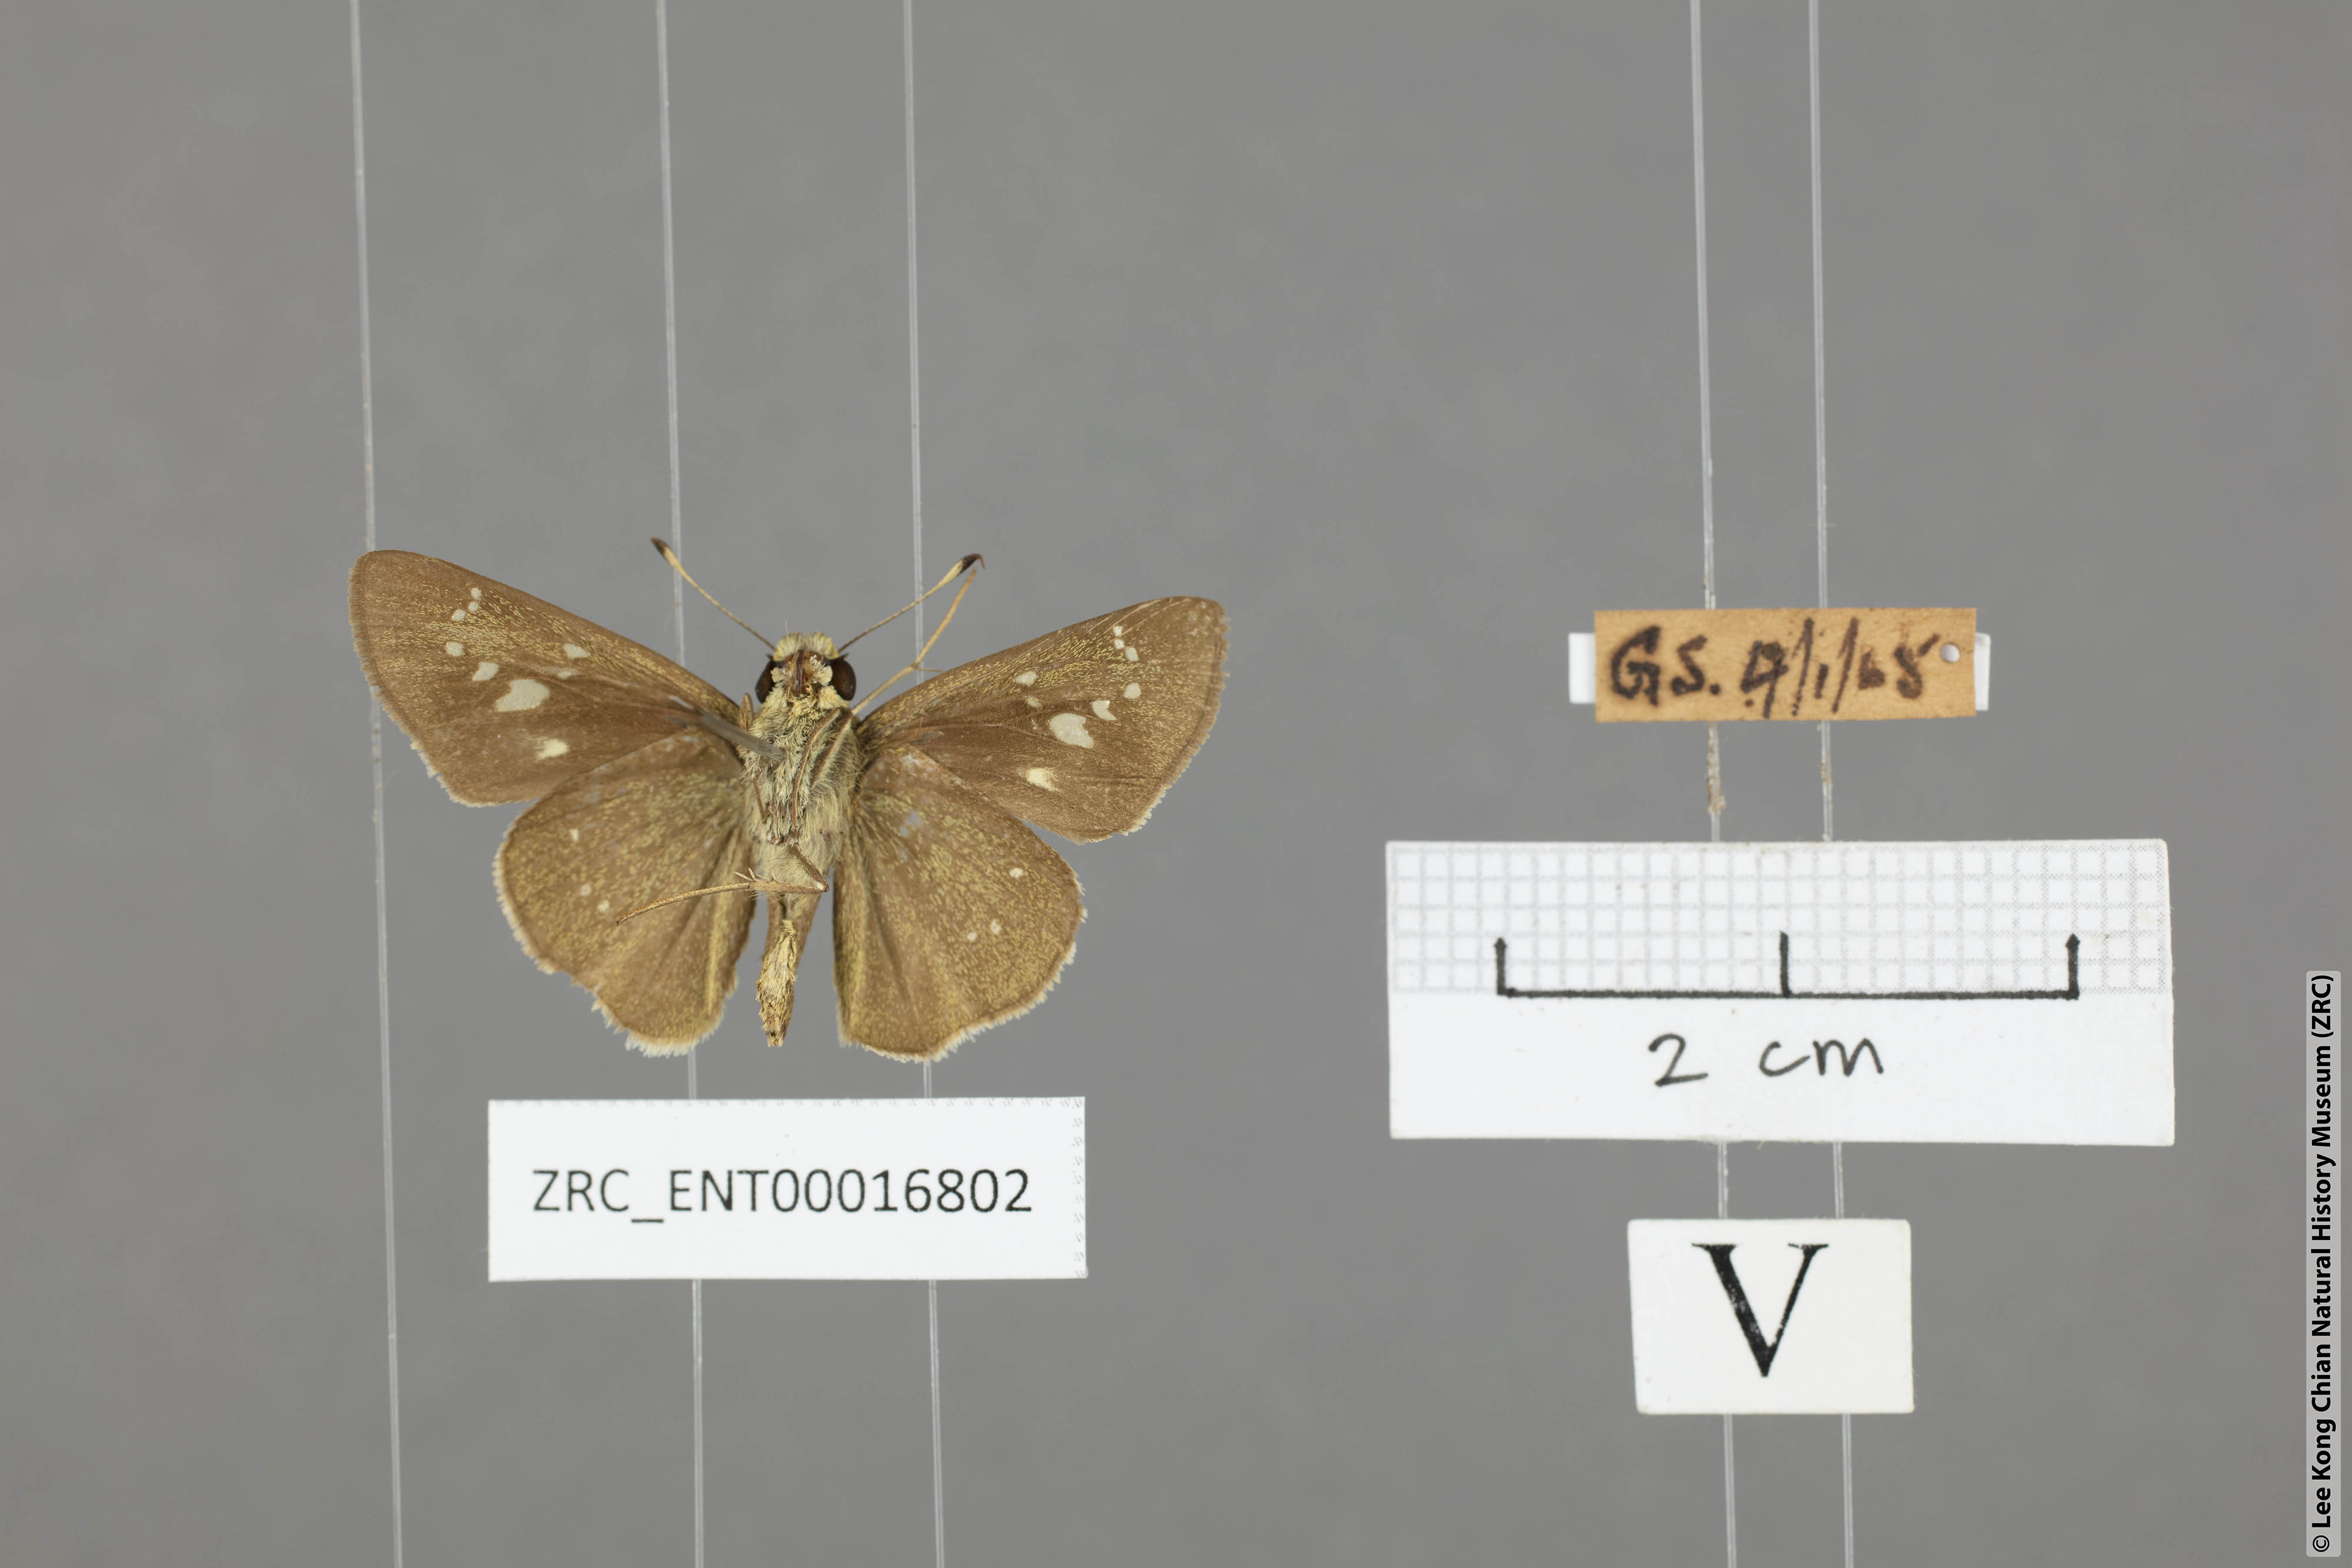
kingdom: Animalia
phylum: Arthropoda
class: Insecta
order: Lepidoptera
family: Hesperiidae
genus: Borbo
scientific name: Borbo cinnara
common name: Formosan swift
